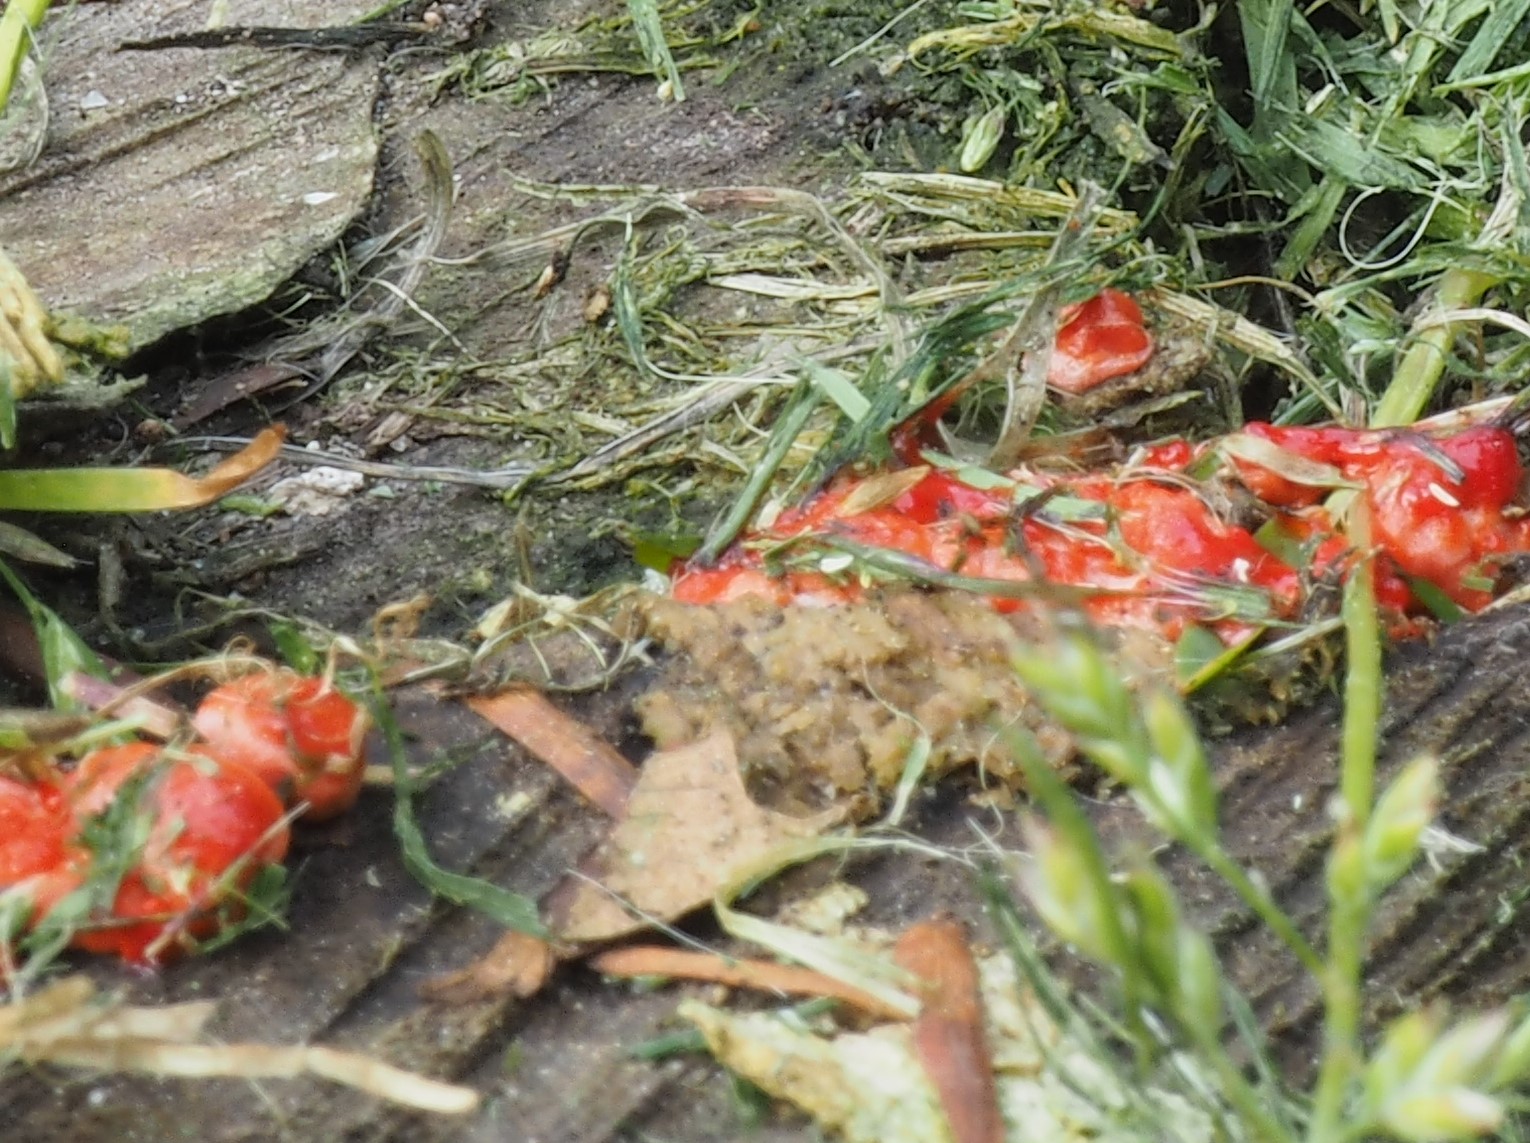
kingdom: Protozoa
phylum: Mycetozoa
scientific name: Mycetozoa
